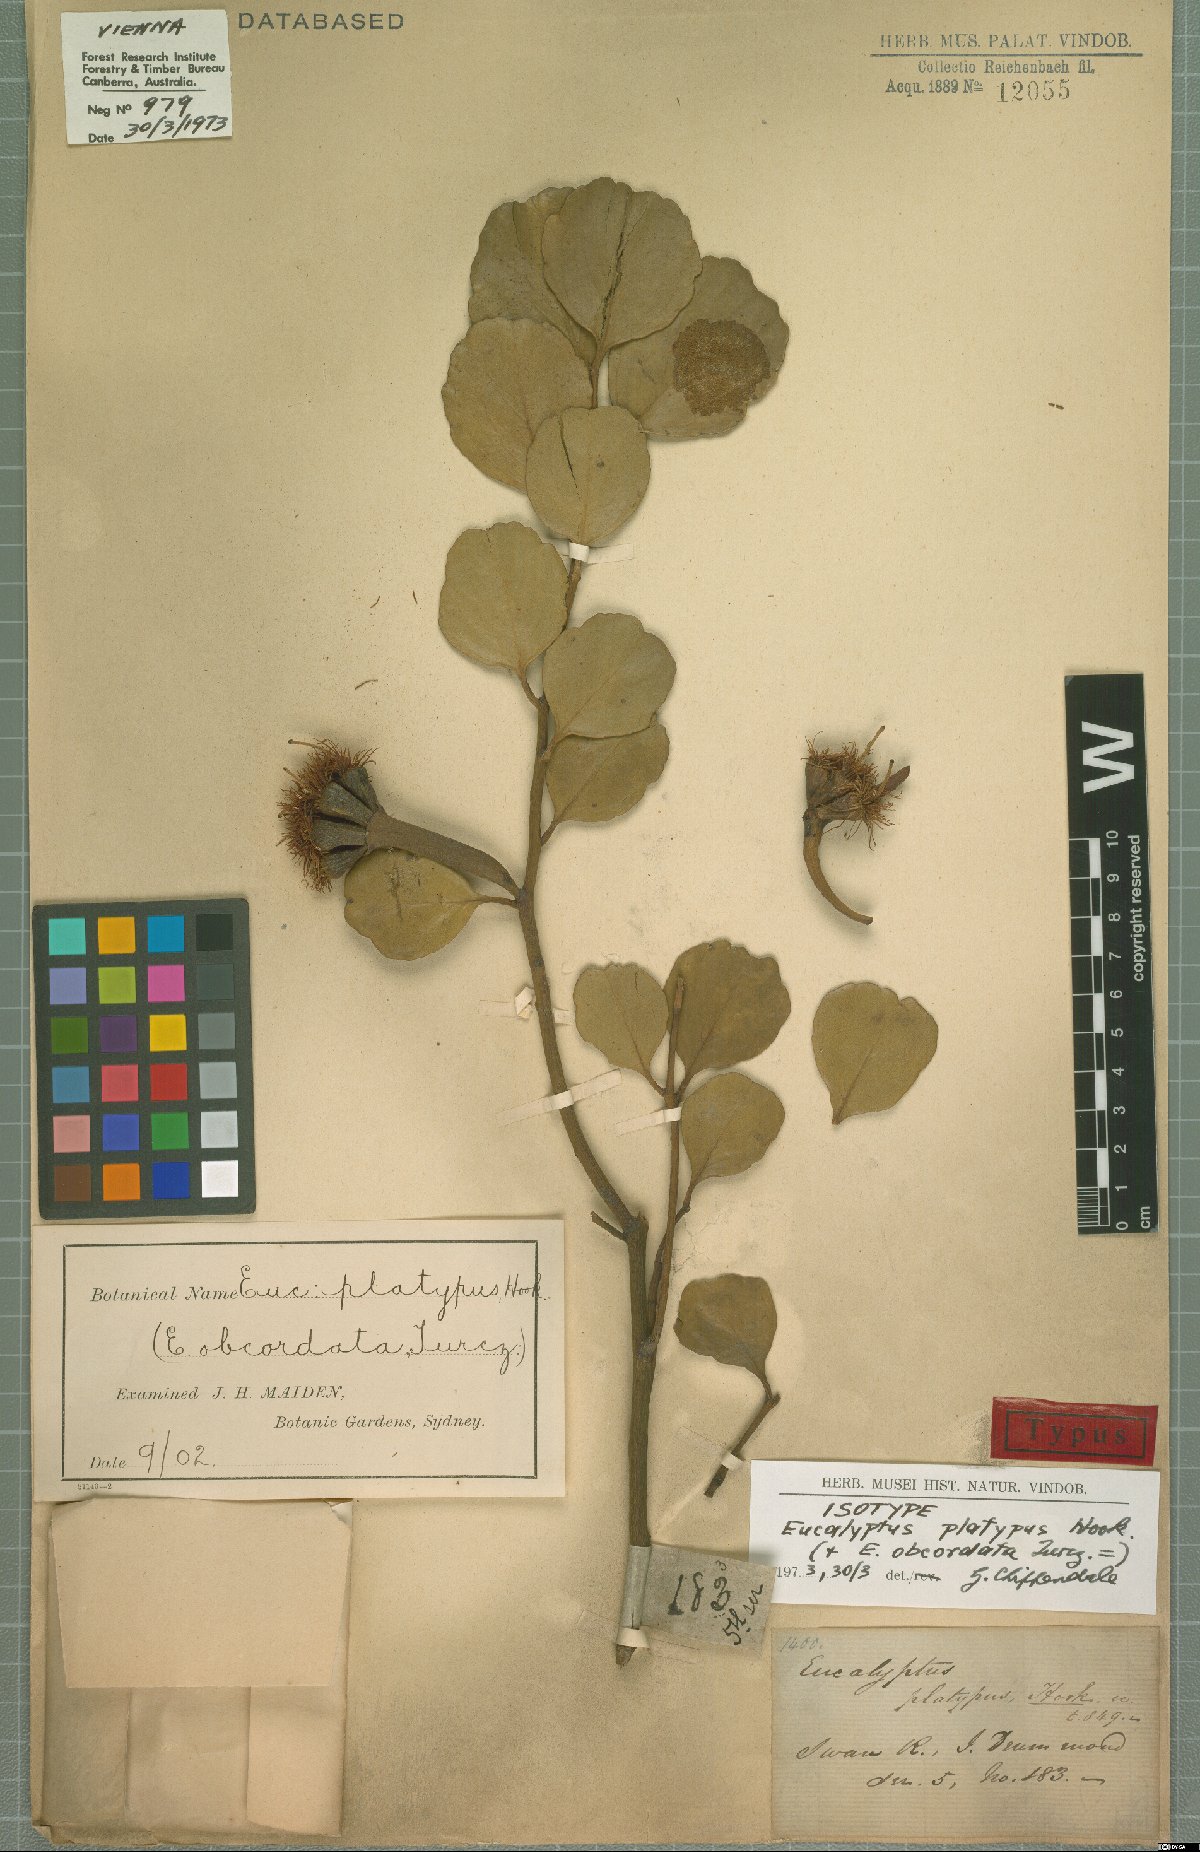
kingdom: Plantae
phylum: Tracheophyta
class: Magnoliopsida
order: Myrtales
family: Myrtaceae
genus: Eucalyptus
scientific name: Eucalyptus platypus
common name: Moort
